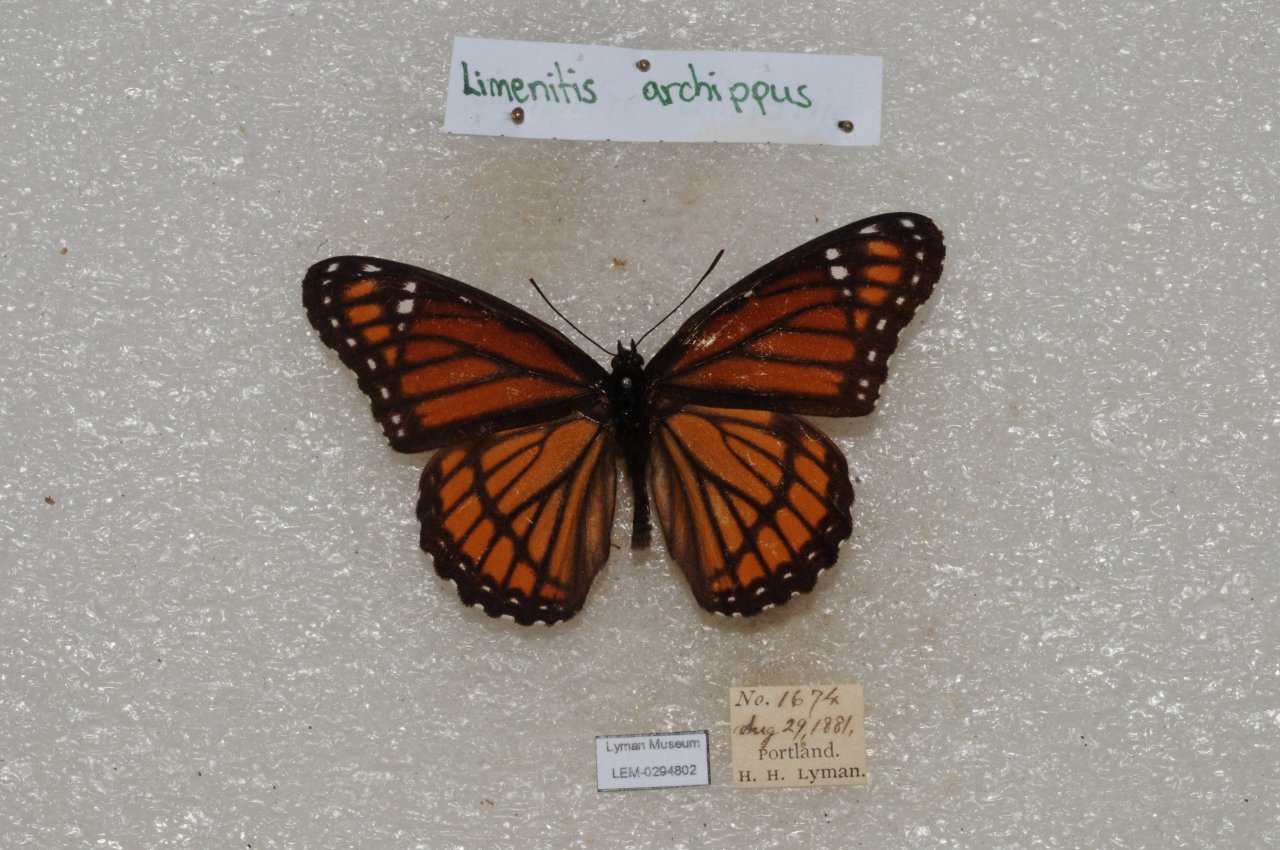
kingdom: Animalia
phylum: Arthropoda
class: Insecta
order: Lepidoptera
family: Nymphalidae
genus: Limenitis
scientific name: Limenitis archippus
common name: Viceroy
